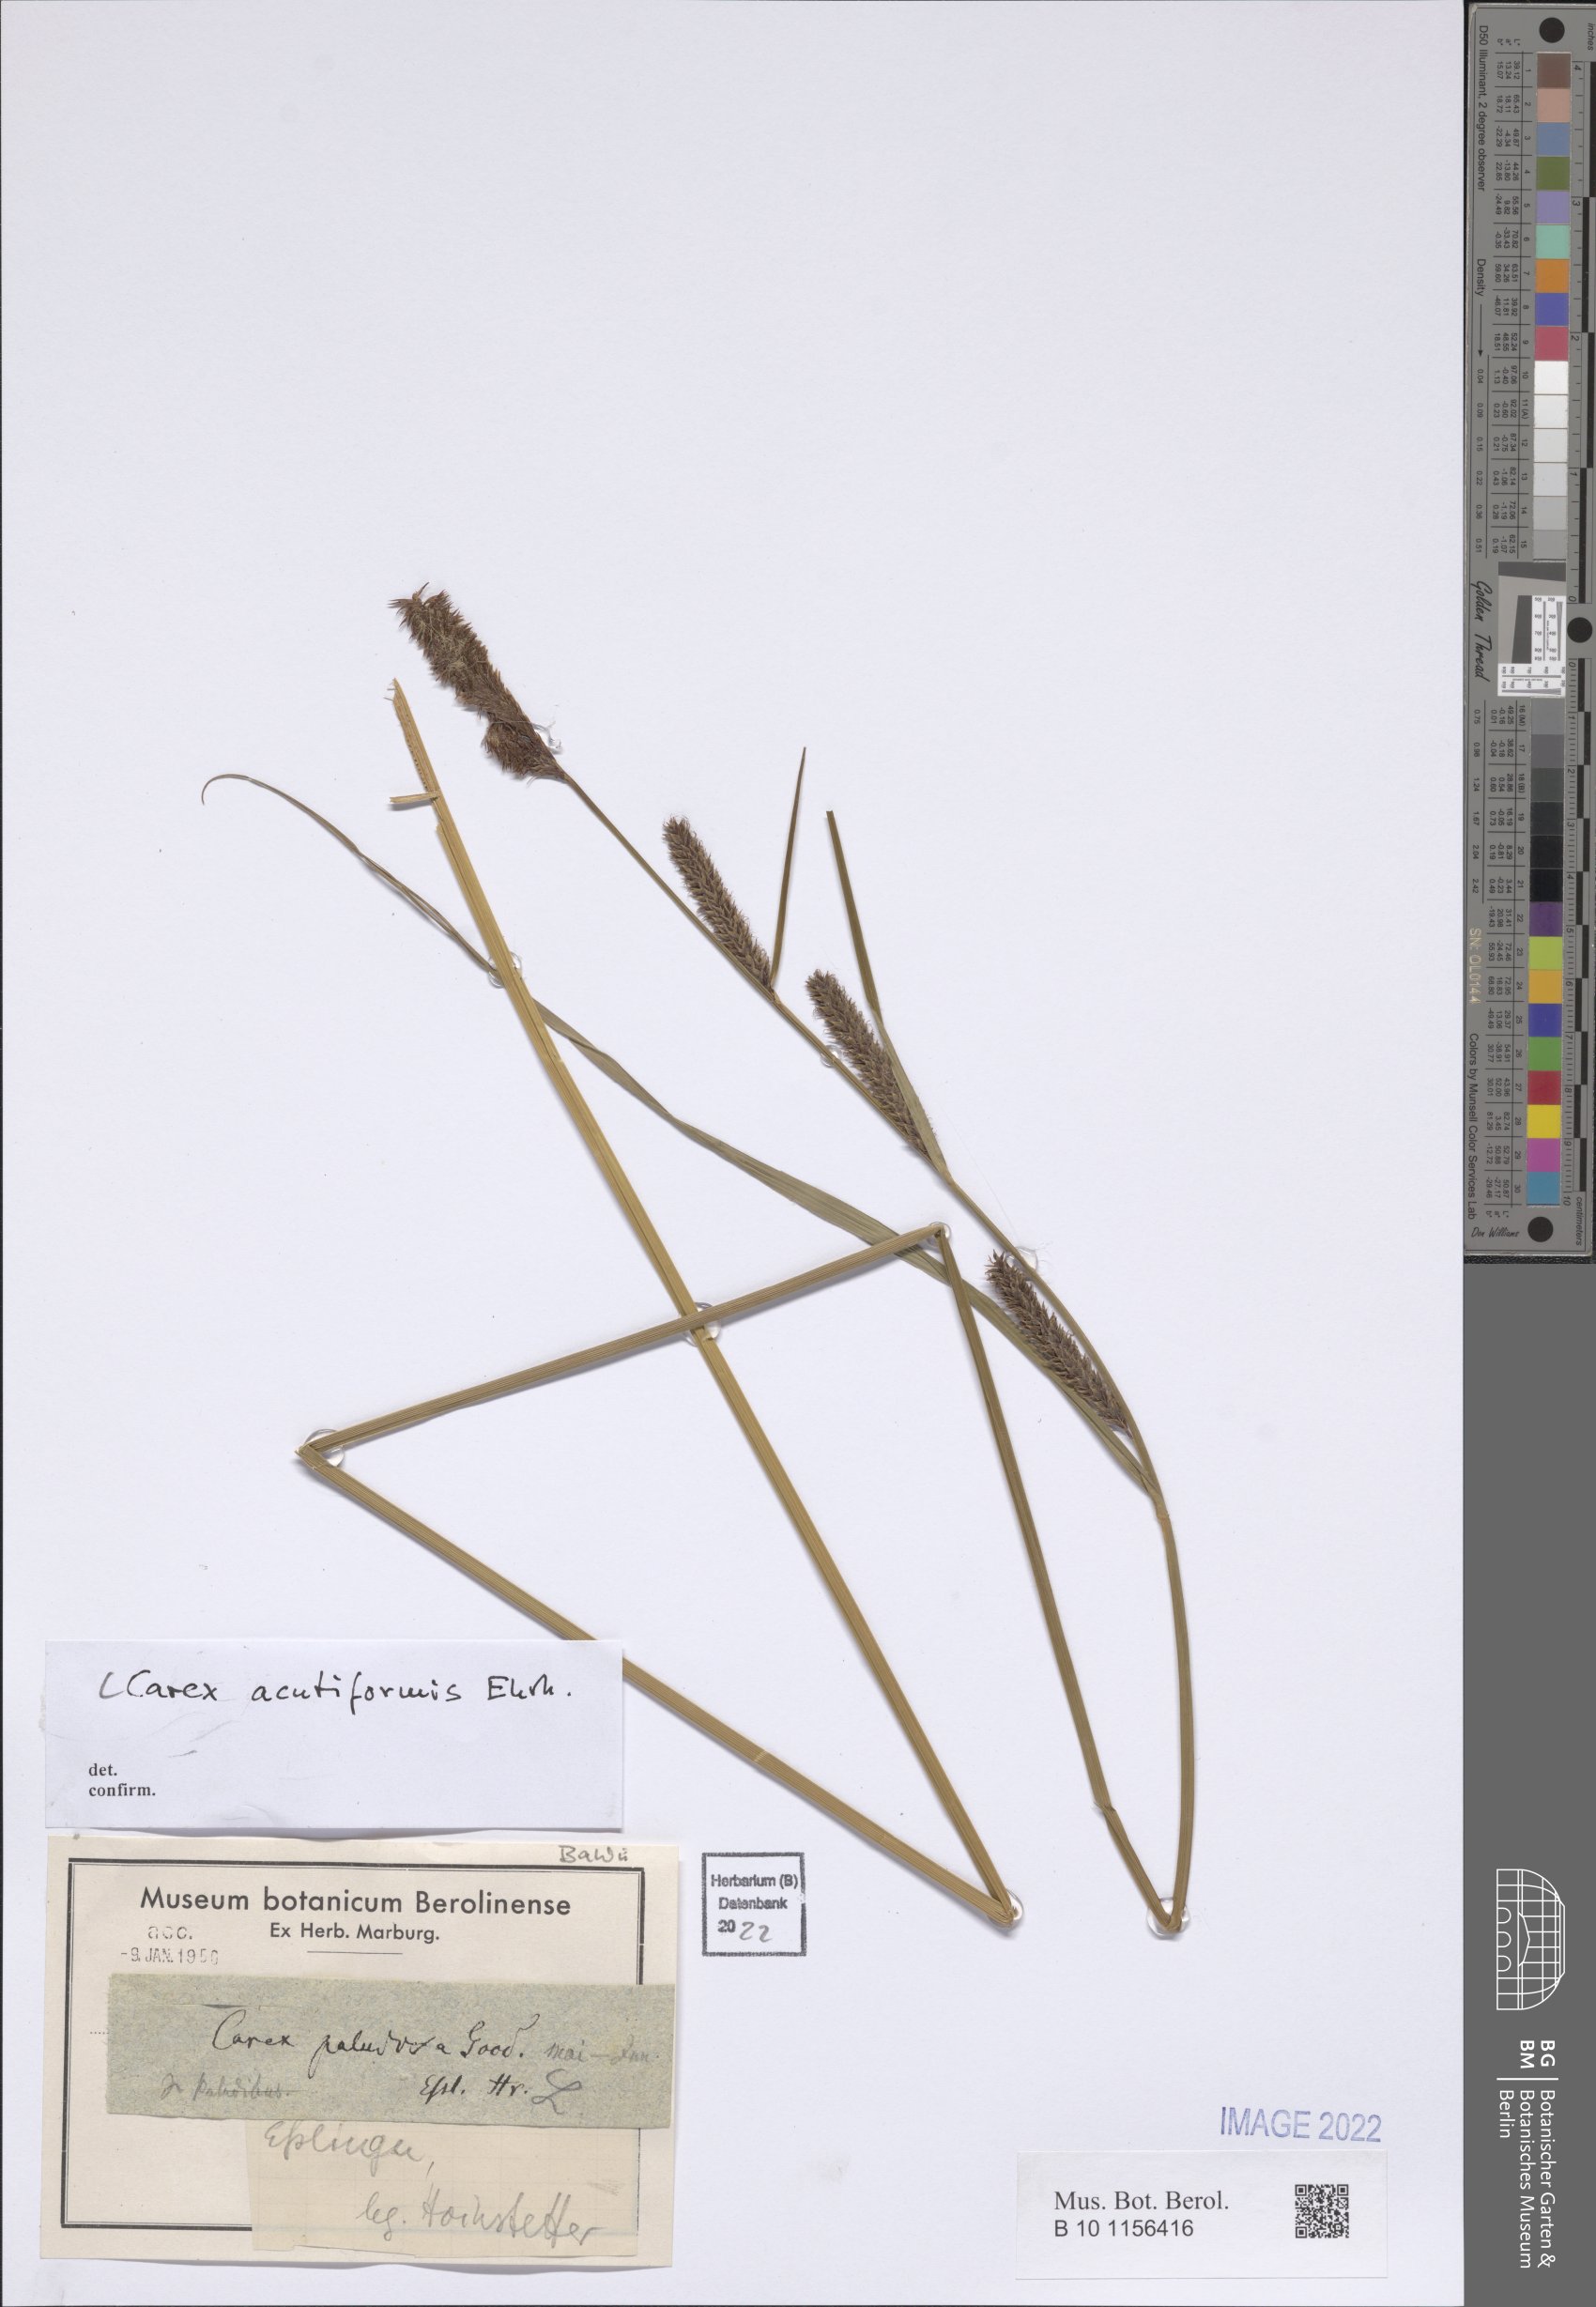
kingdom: Plantae
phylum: Tracheophyta
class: Liliopsida
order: Poales
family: Cyperaceae
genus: Carex
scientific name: Carex acutiformis
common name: Lesser pond-sedge
